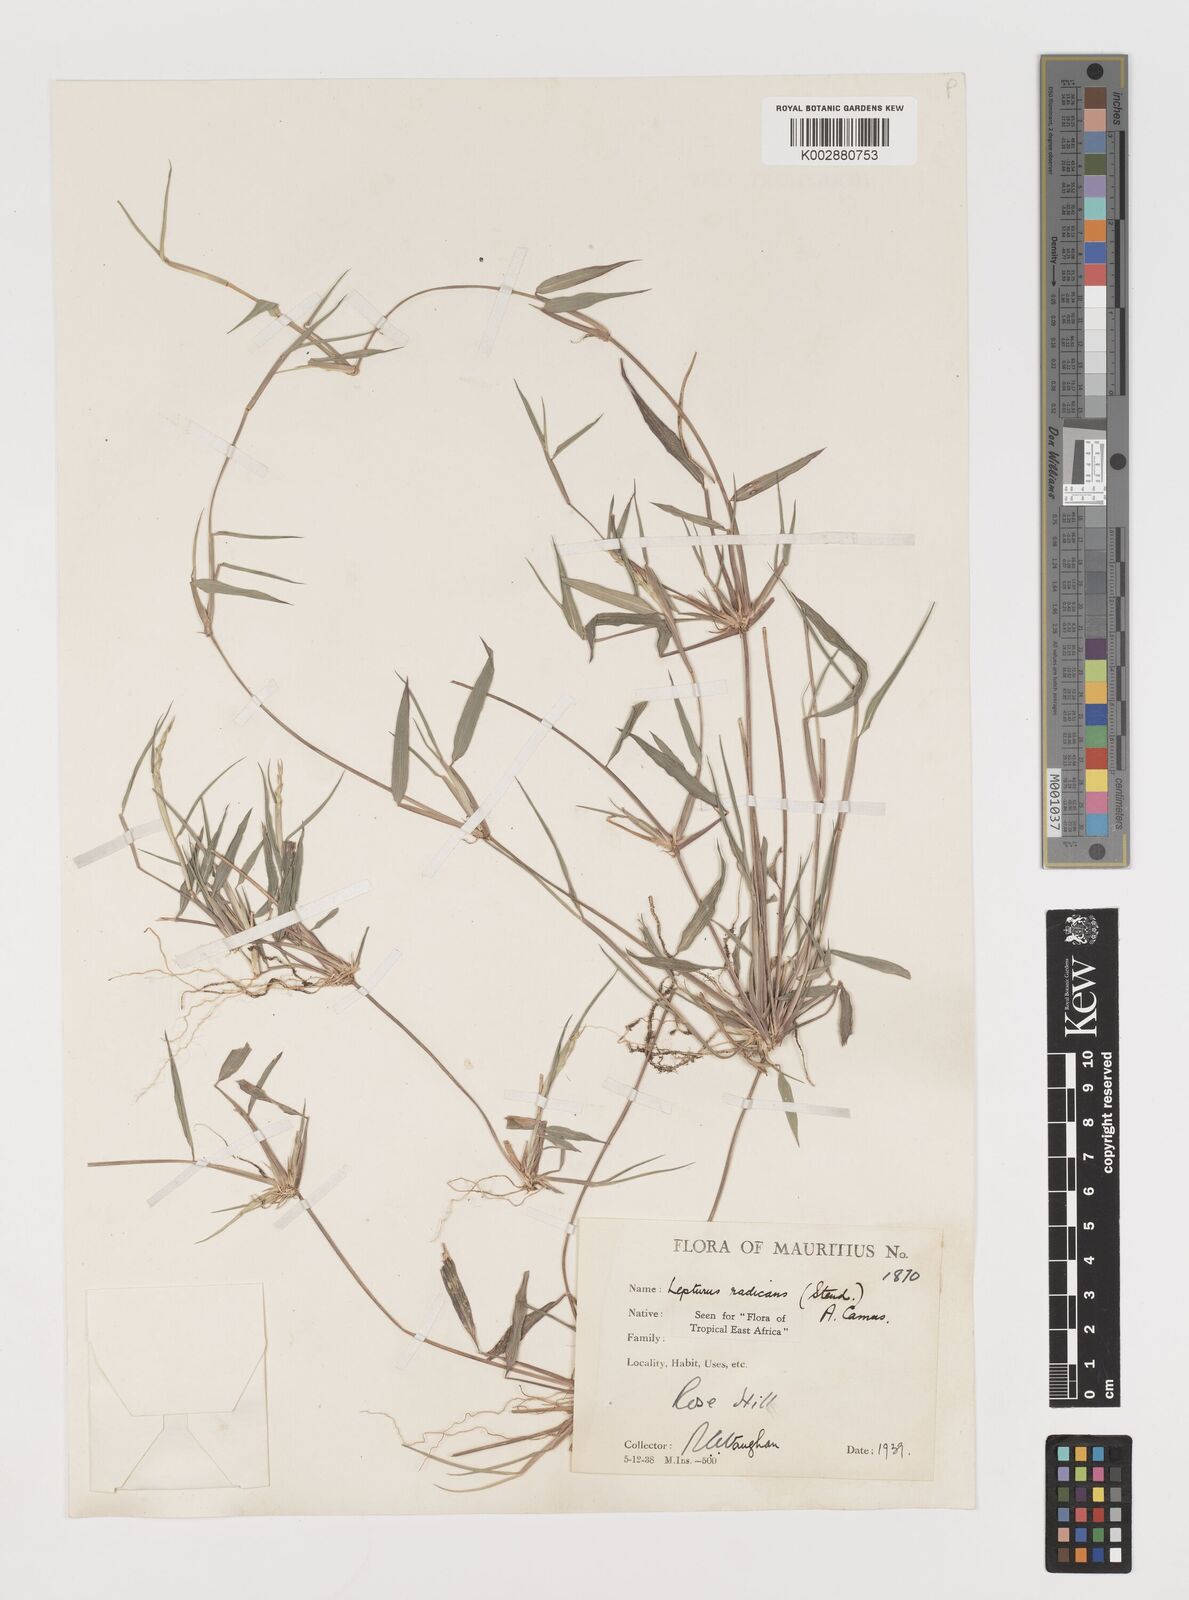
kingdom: Plantae
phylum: Tracheophyta
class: Liliopsida
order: Poales
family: Poaceae
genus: Lepturus
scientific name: Lepturus radicans
